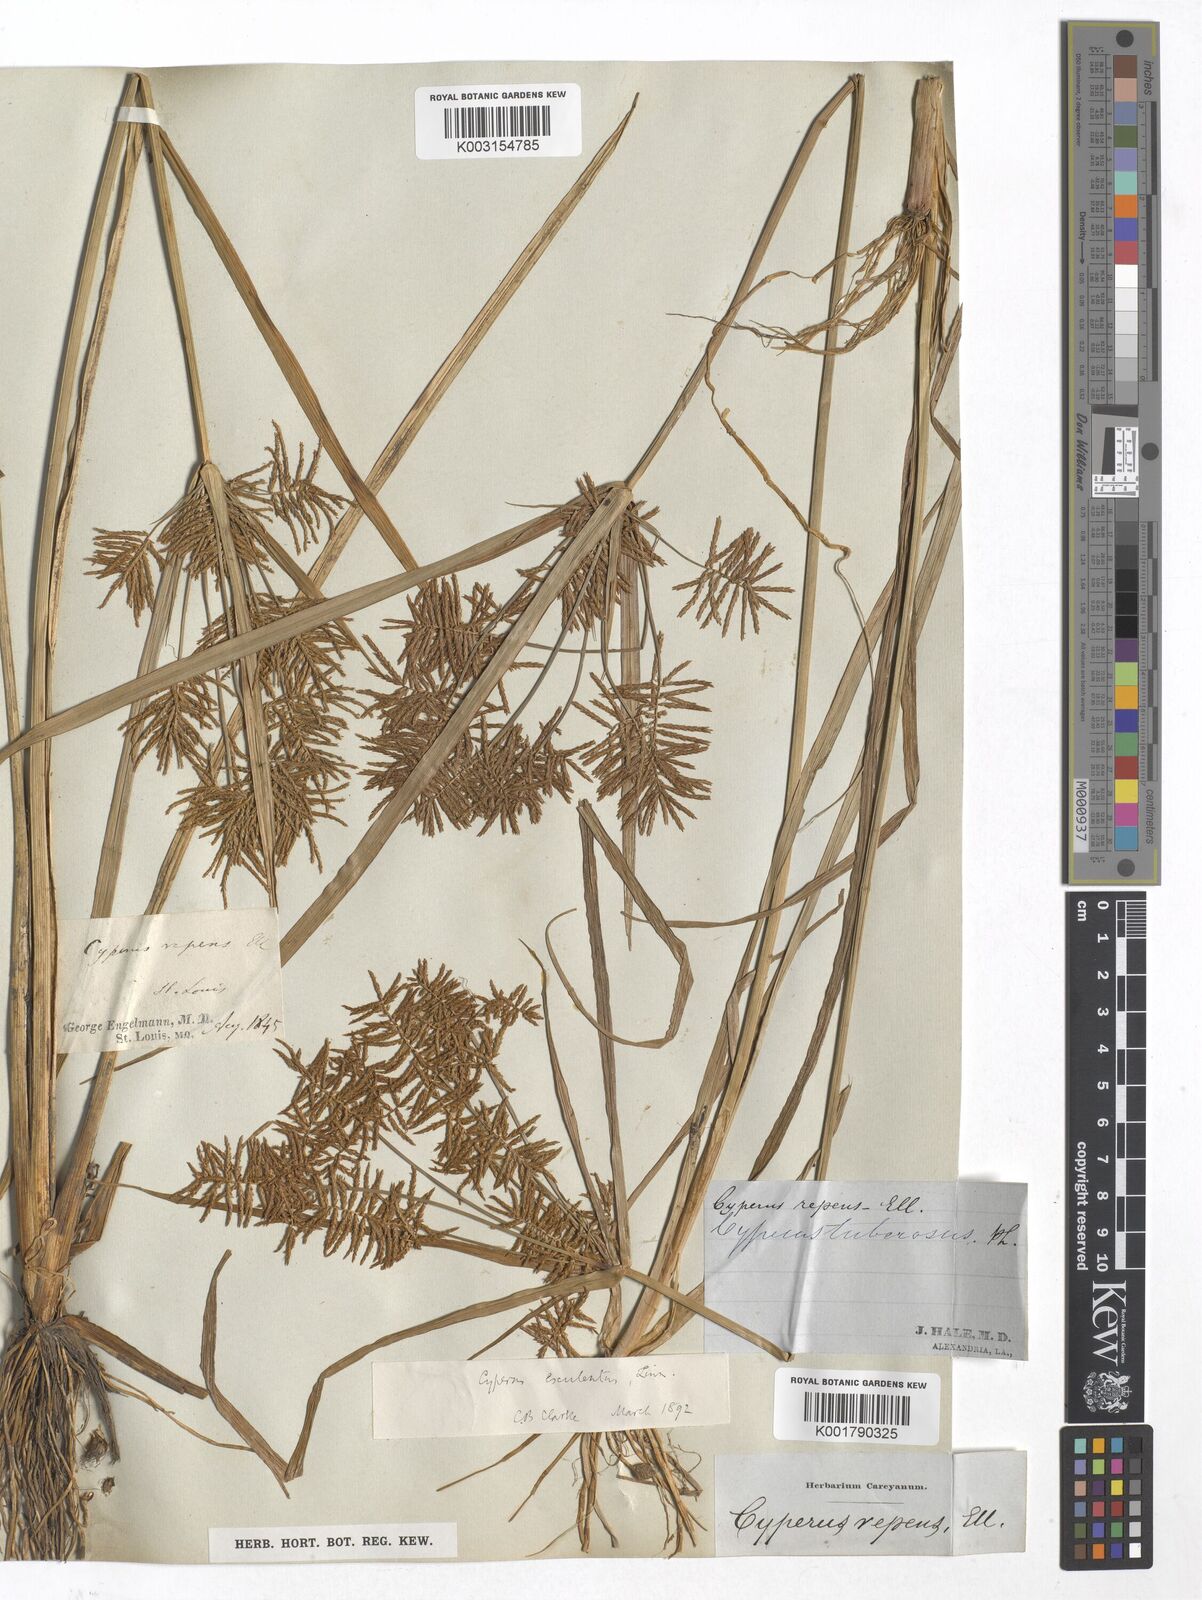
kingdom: Plantae
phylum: Tracheophyta
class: Liliopsida
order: Poales
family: Cyperaceae
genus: Cyperus
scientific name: Cyperus esculentus
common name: Yellow nutsedge
